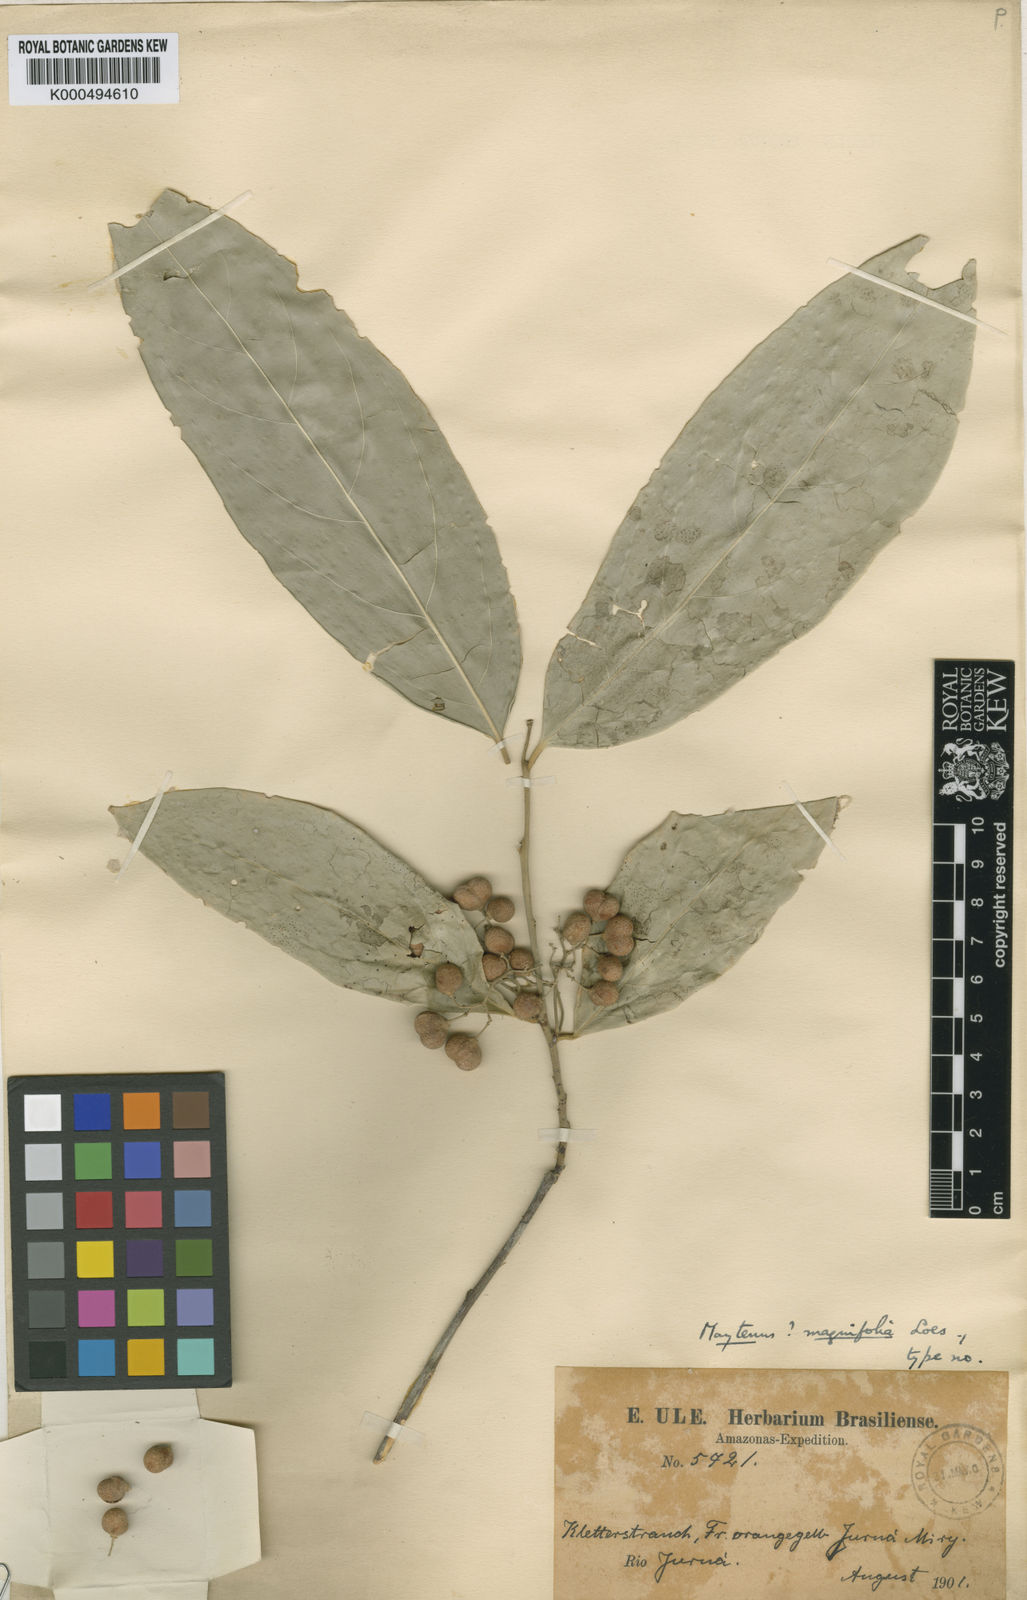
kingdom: Plantae
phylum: Tracheophyta
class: Magnoliopsida
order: Celastrales
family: Celastraceae
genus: Haydenoxylon
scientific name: Haydenoxylon urbanianum
